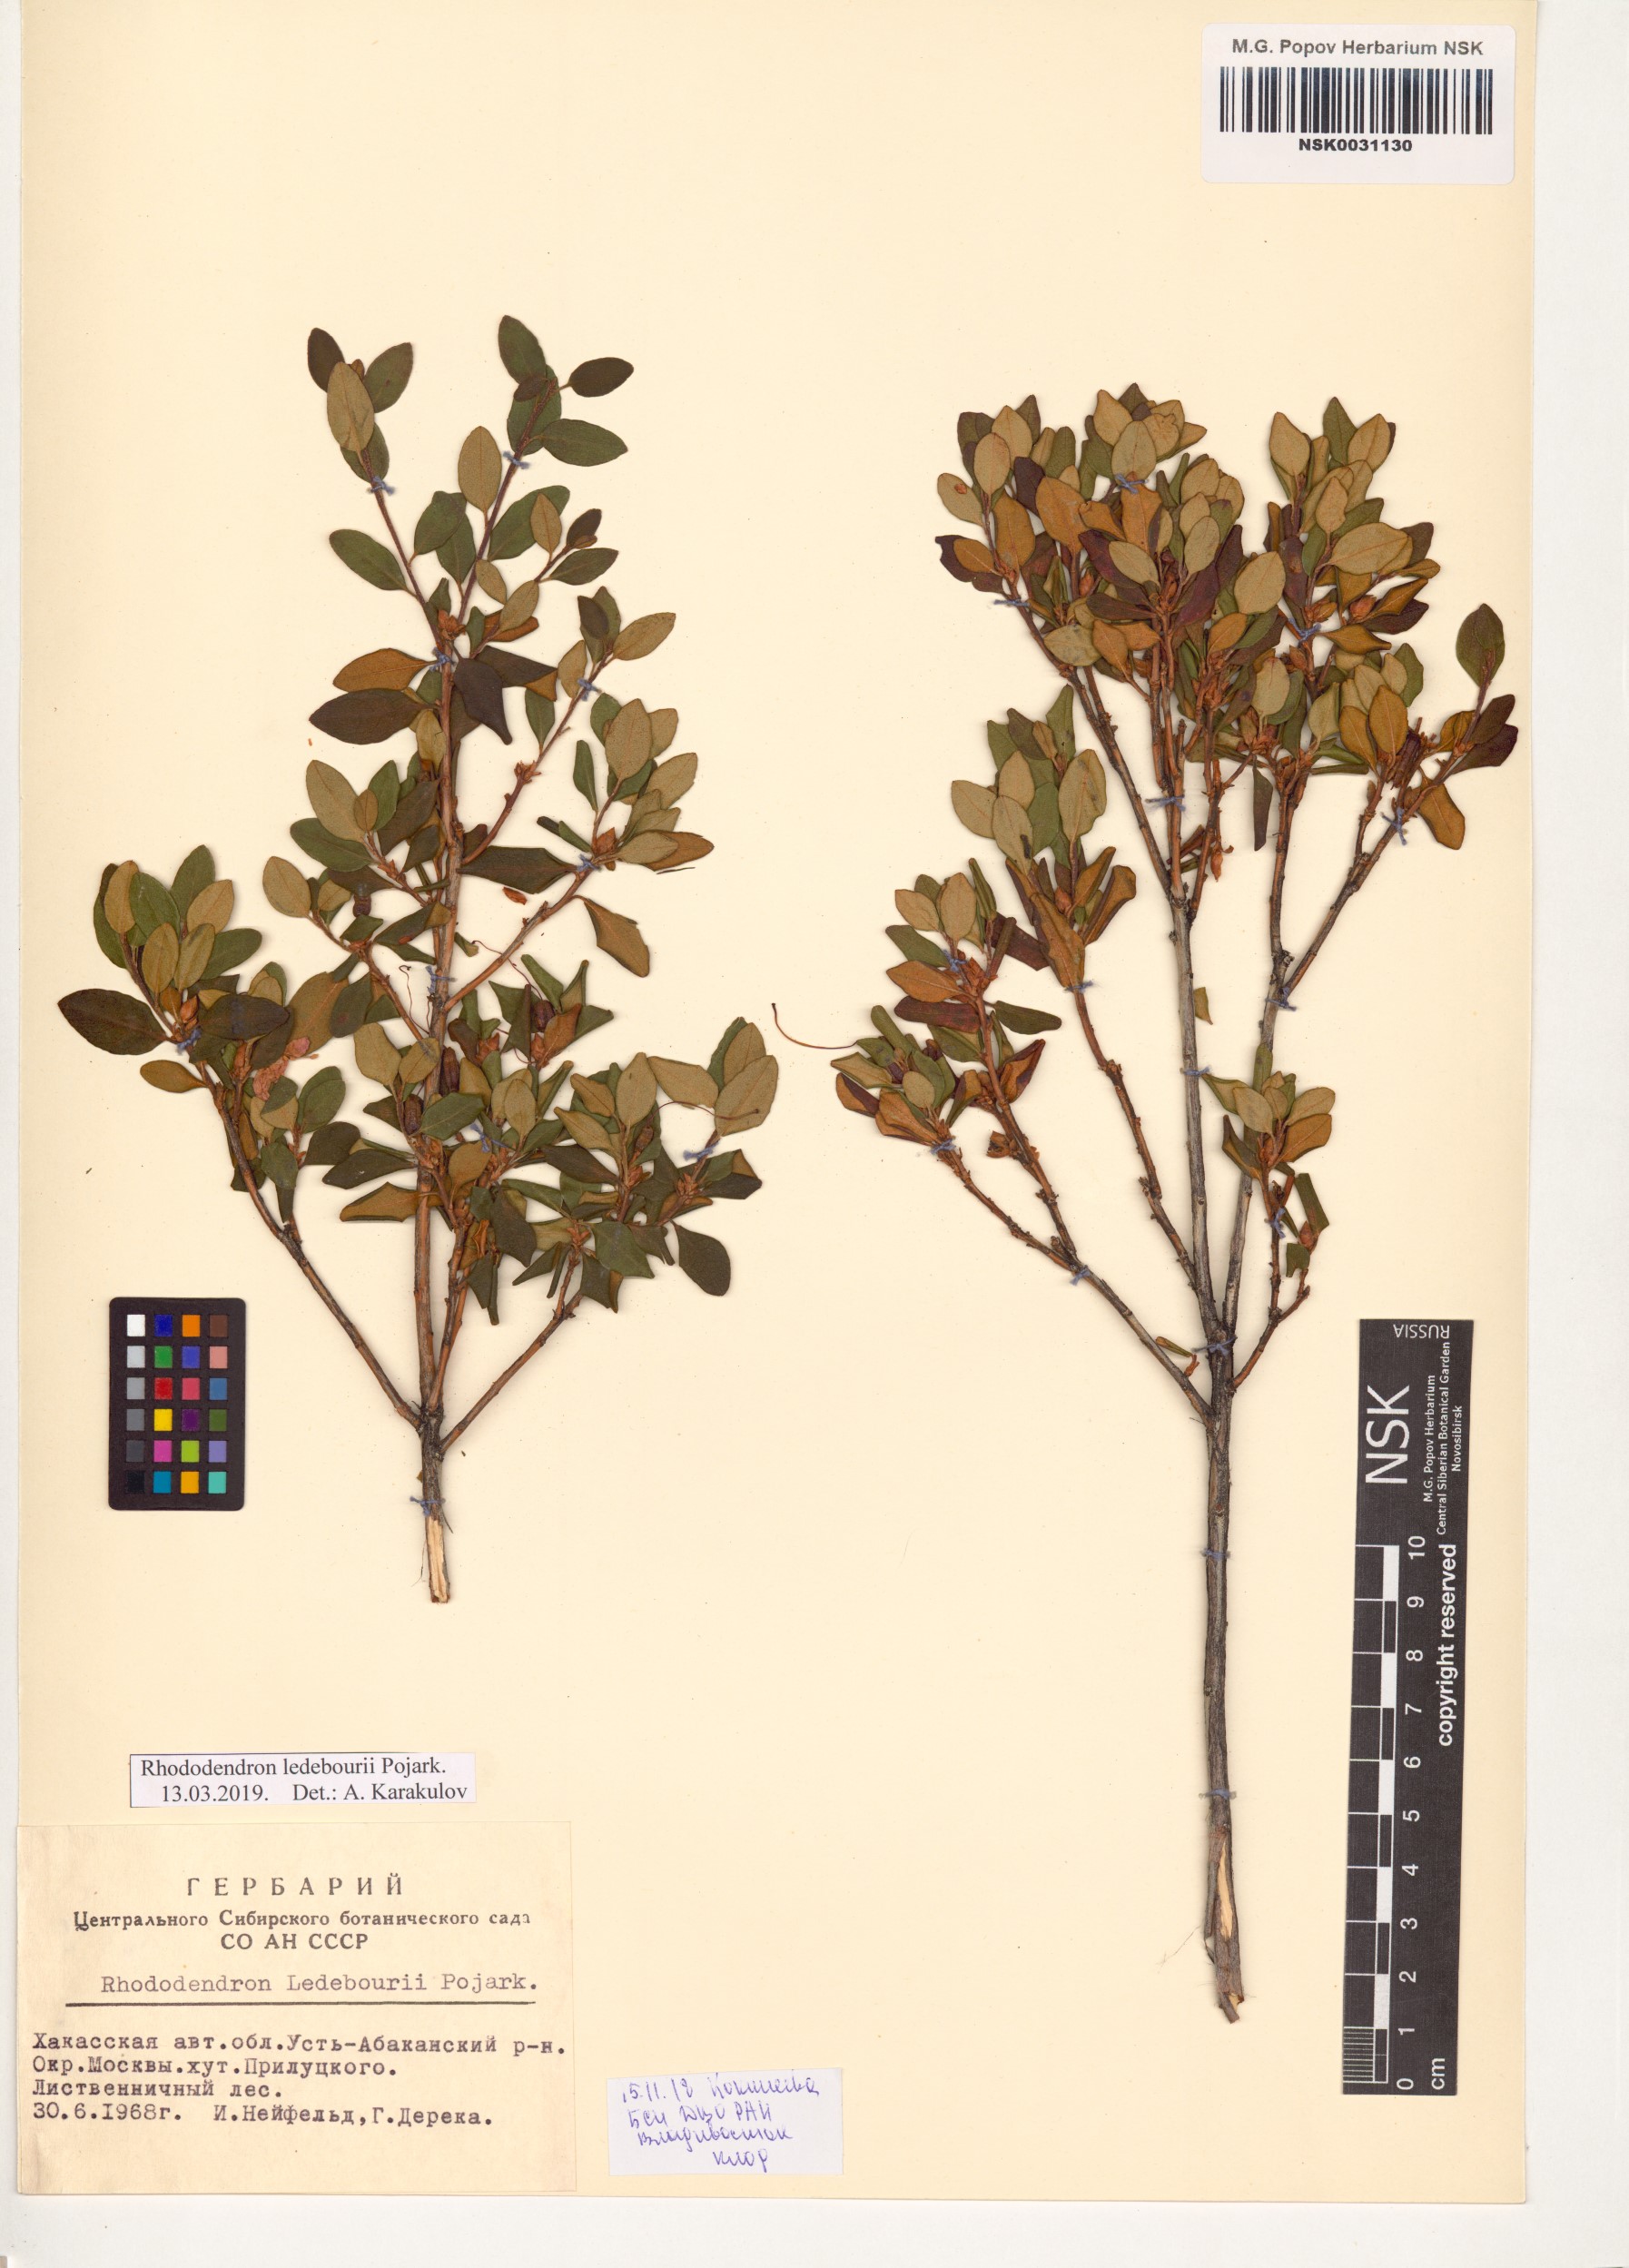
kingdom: Plantae
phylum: Tracheophyta
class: Magnoliopsida
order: Ericales
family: Ericaceae
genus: Rhododendron
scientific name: Rhododendron dauricum
